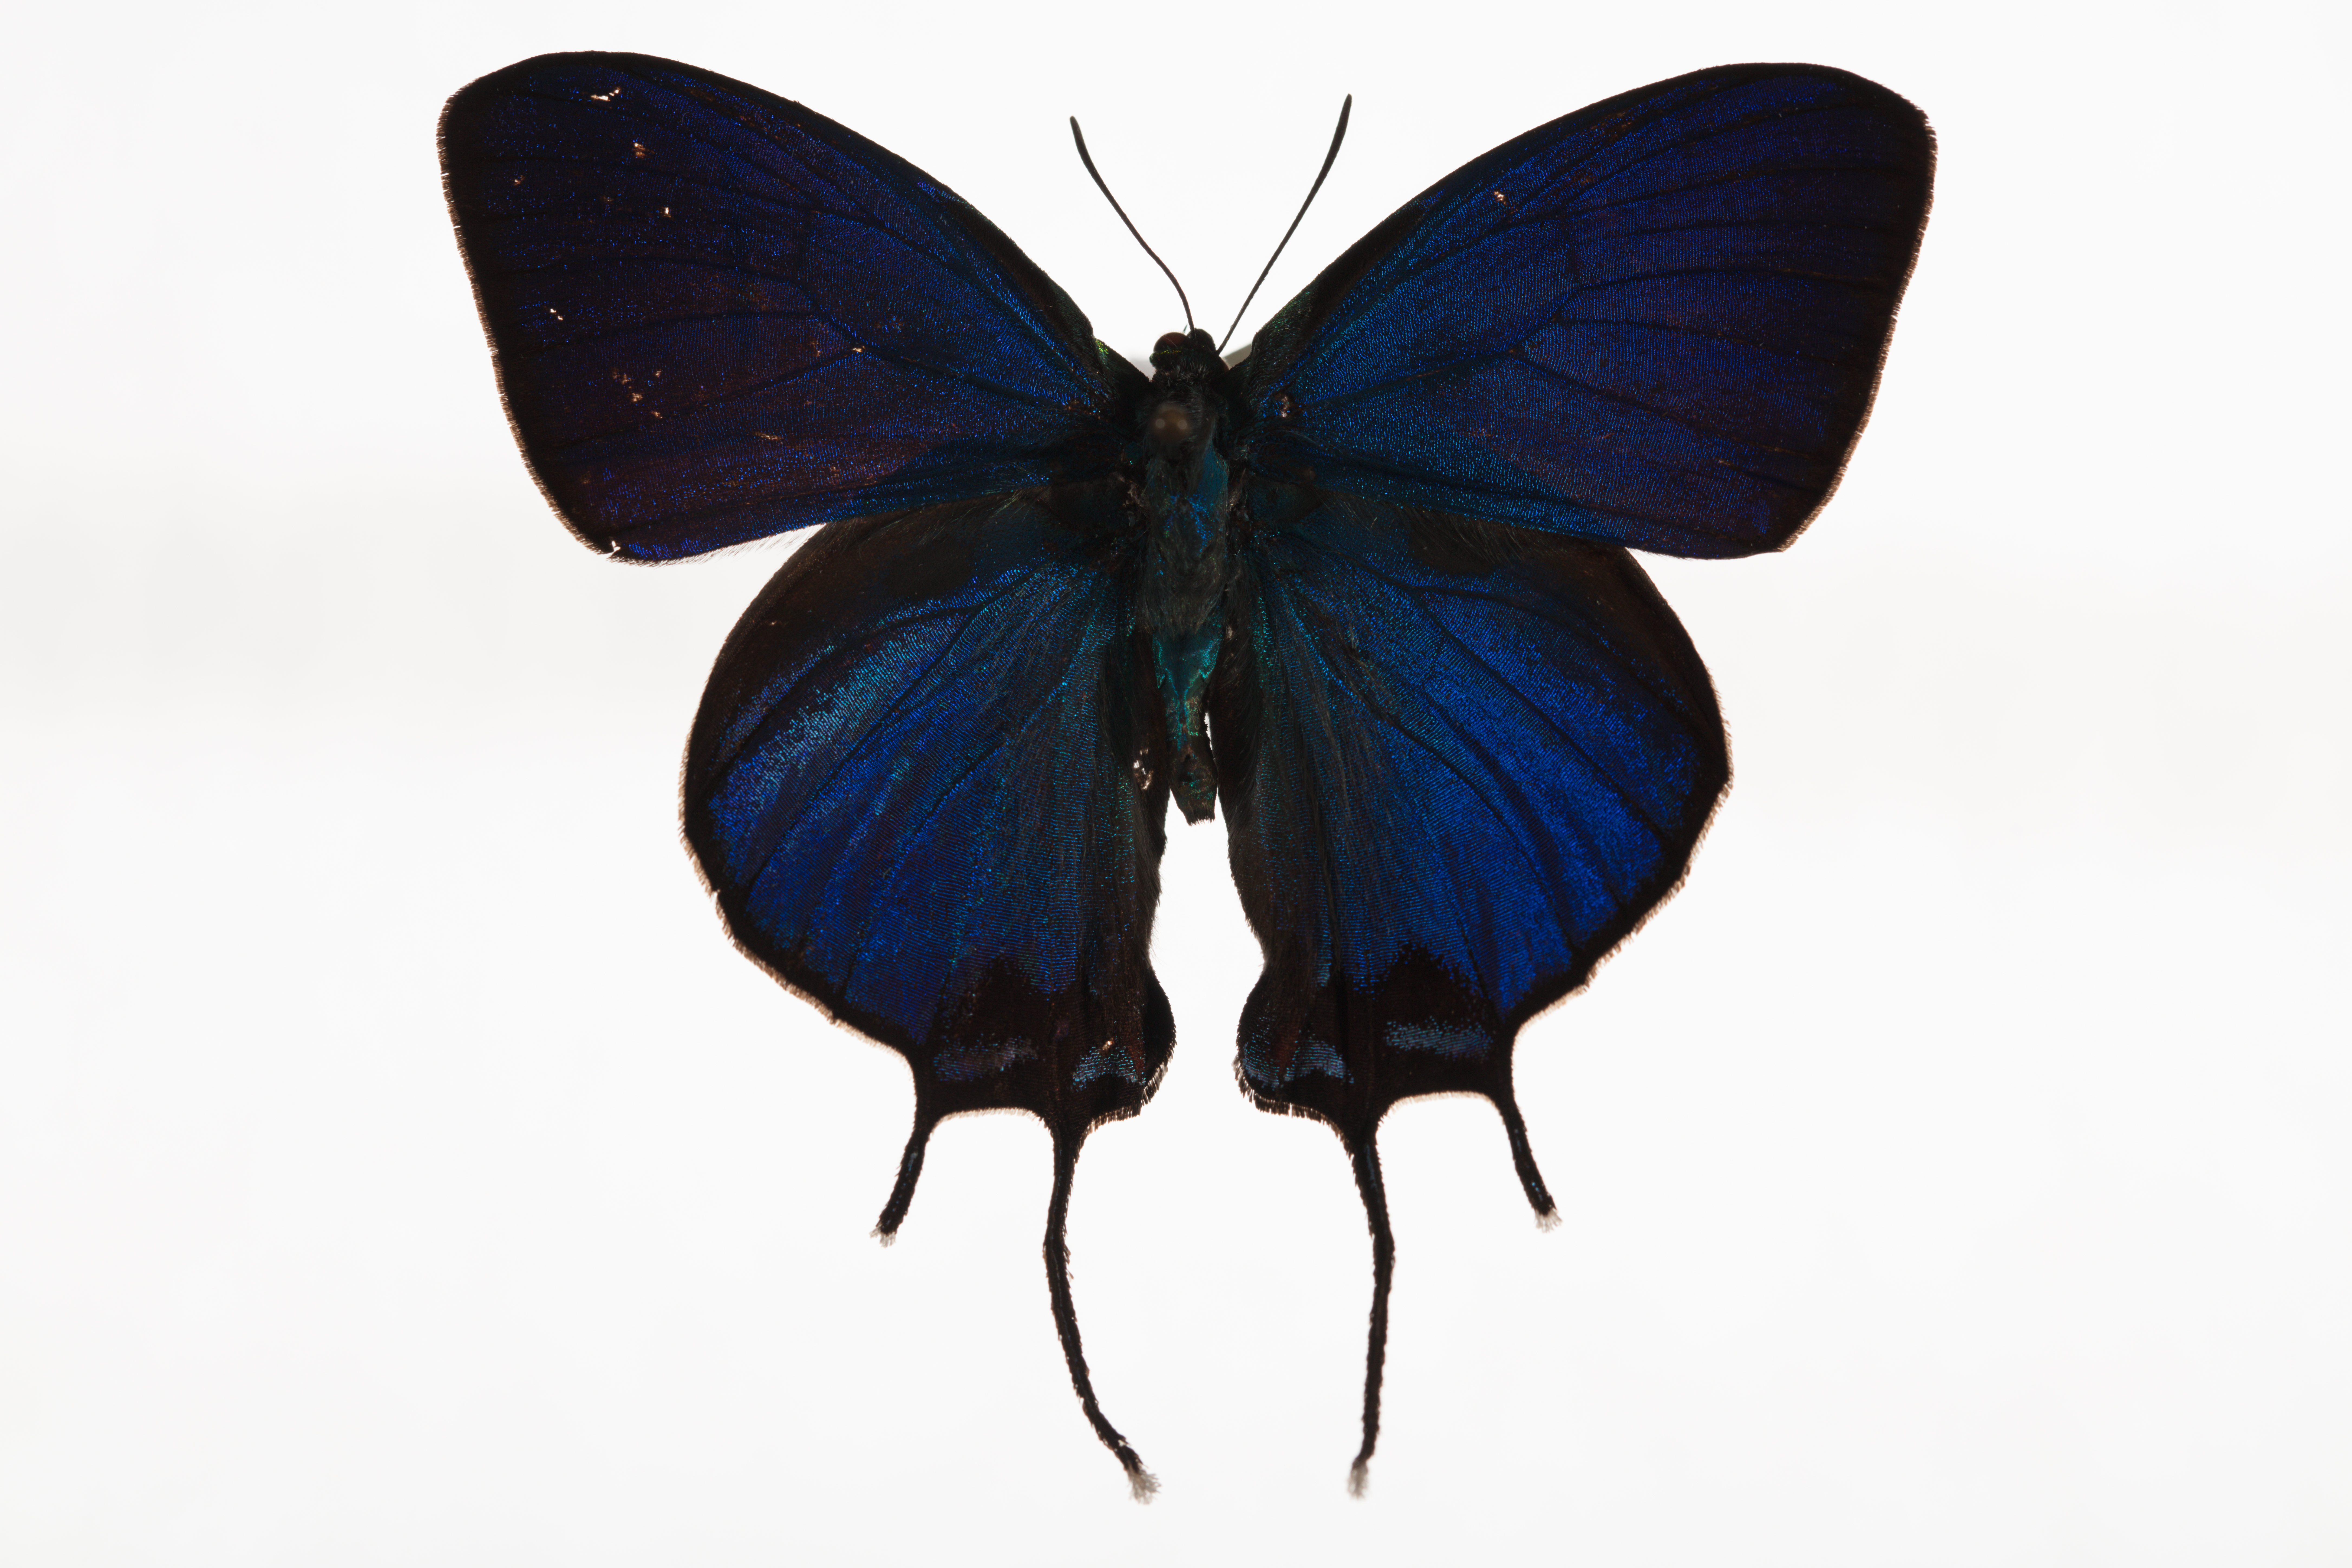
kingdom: Animalia
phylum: Arthropoda
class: Insecta
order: Lepidoptera
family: Lycaenidae
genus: Evenus
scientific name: Evenus coronata
